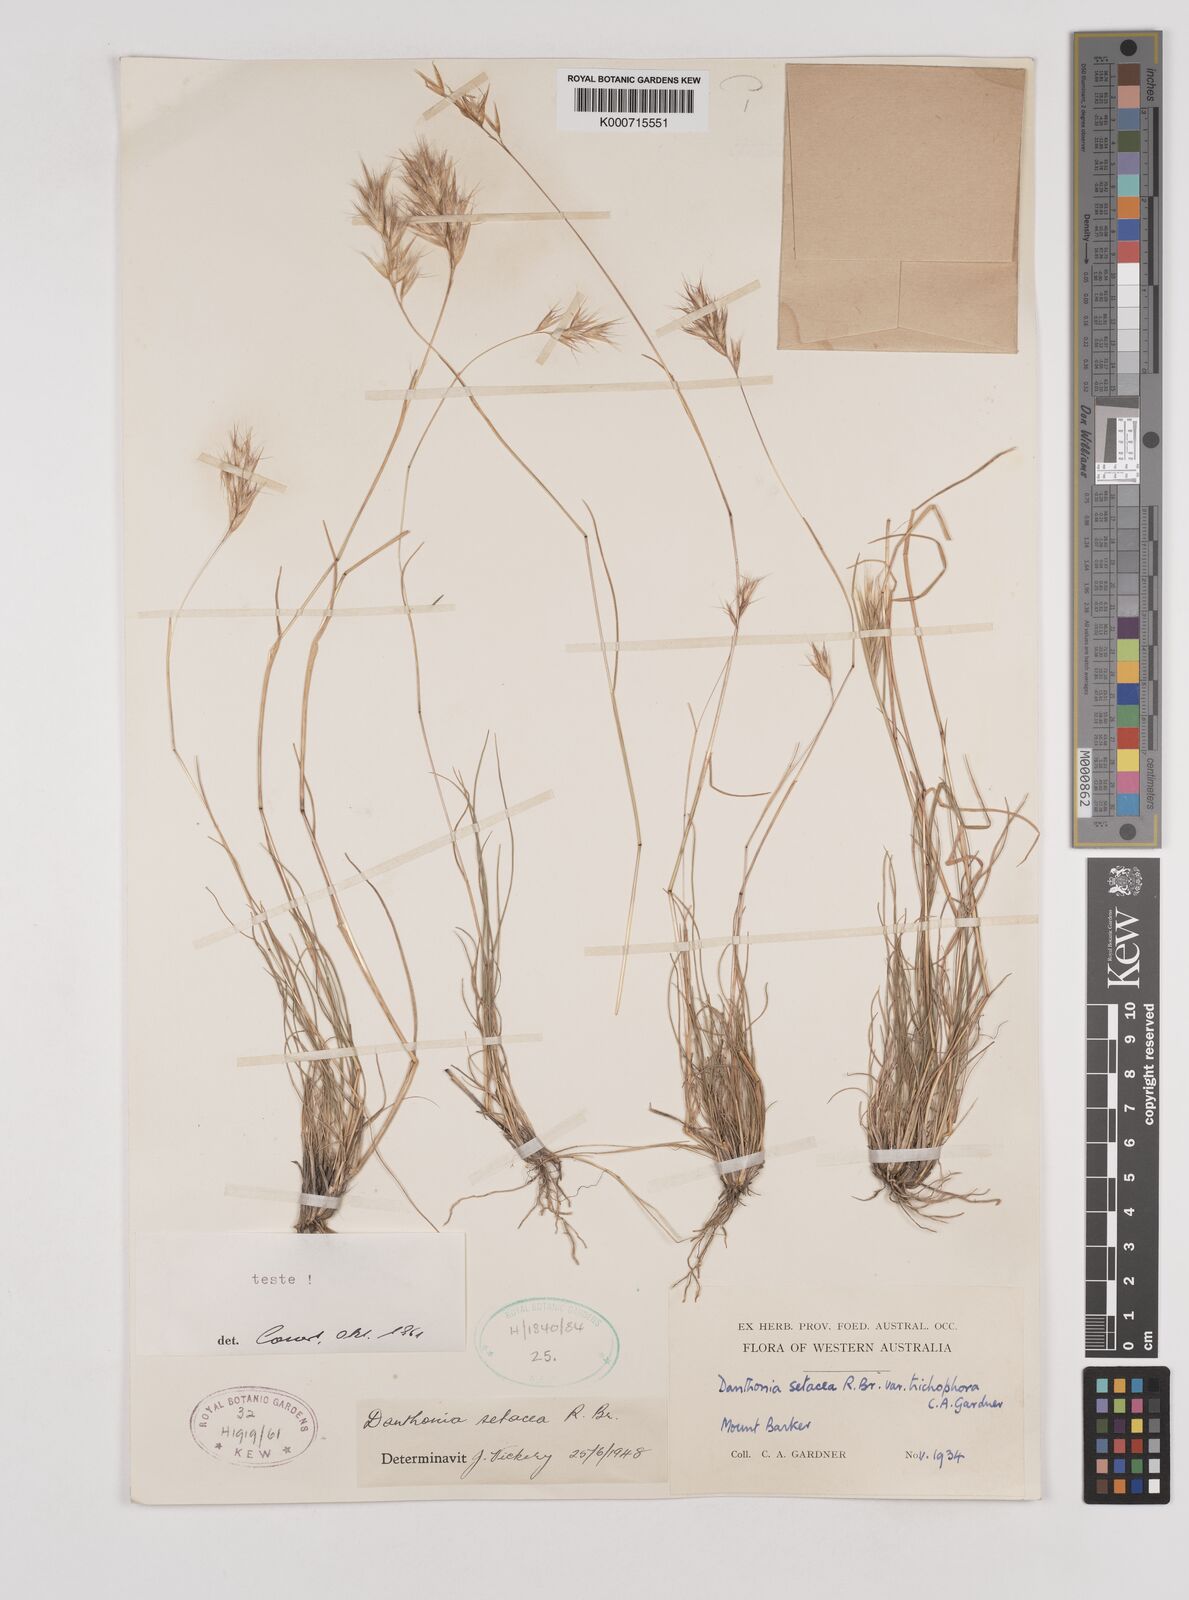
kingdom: Plantae
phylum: Tracheophyta
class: Liliopsida
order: Poales
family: Poaceae
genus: Rytidosperma
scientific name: Rytidosperma setaceum
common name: Small-flower wallaby grass
